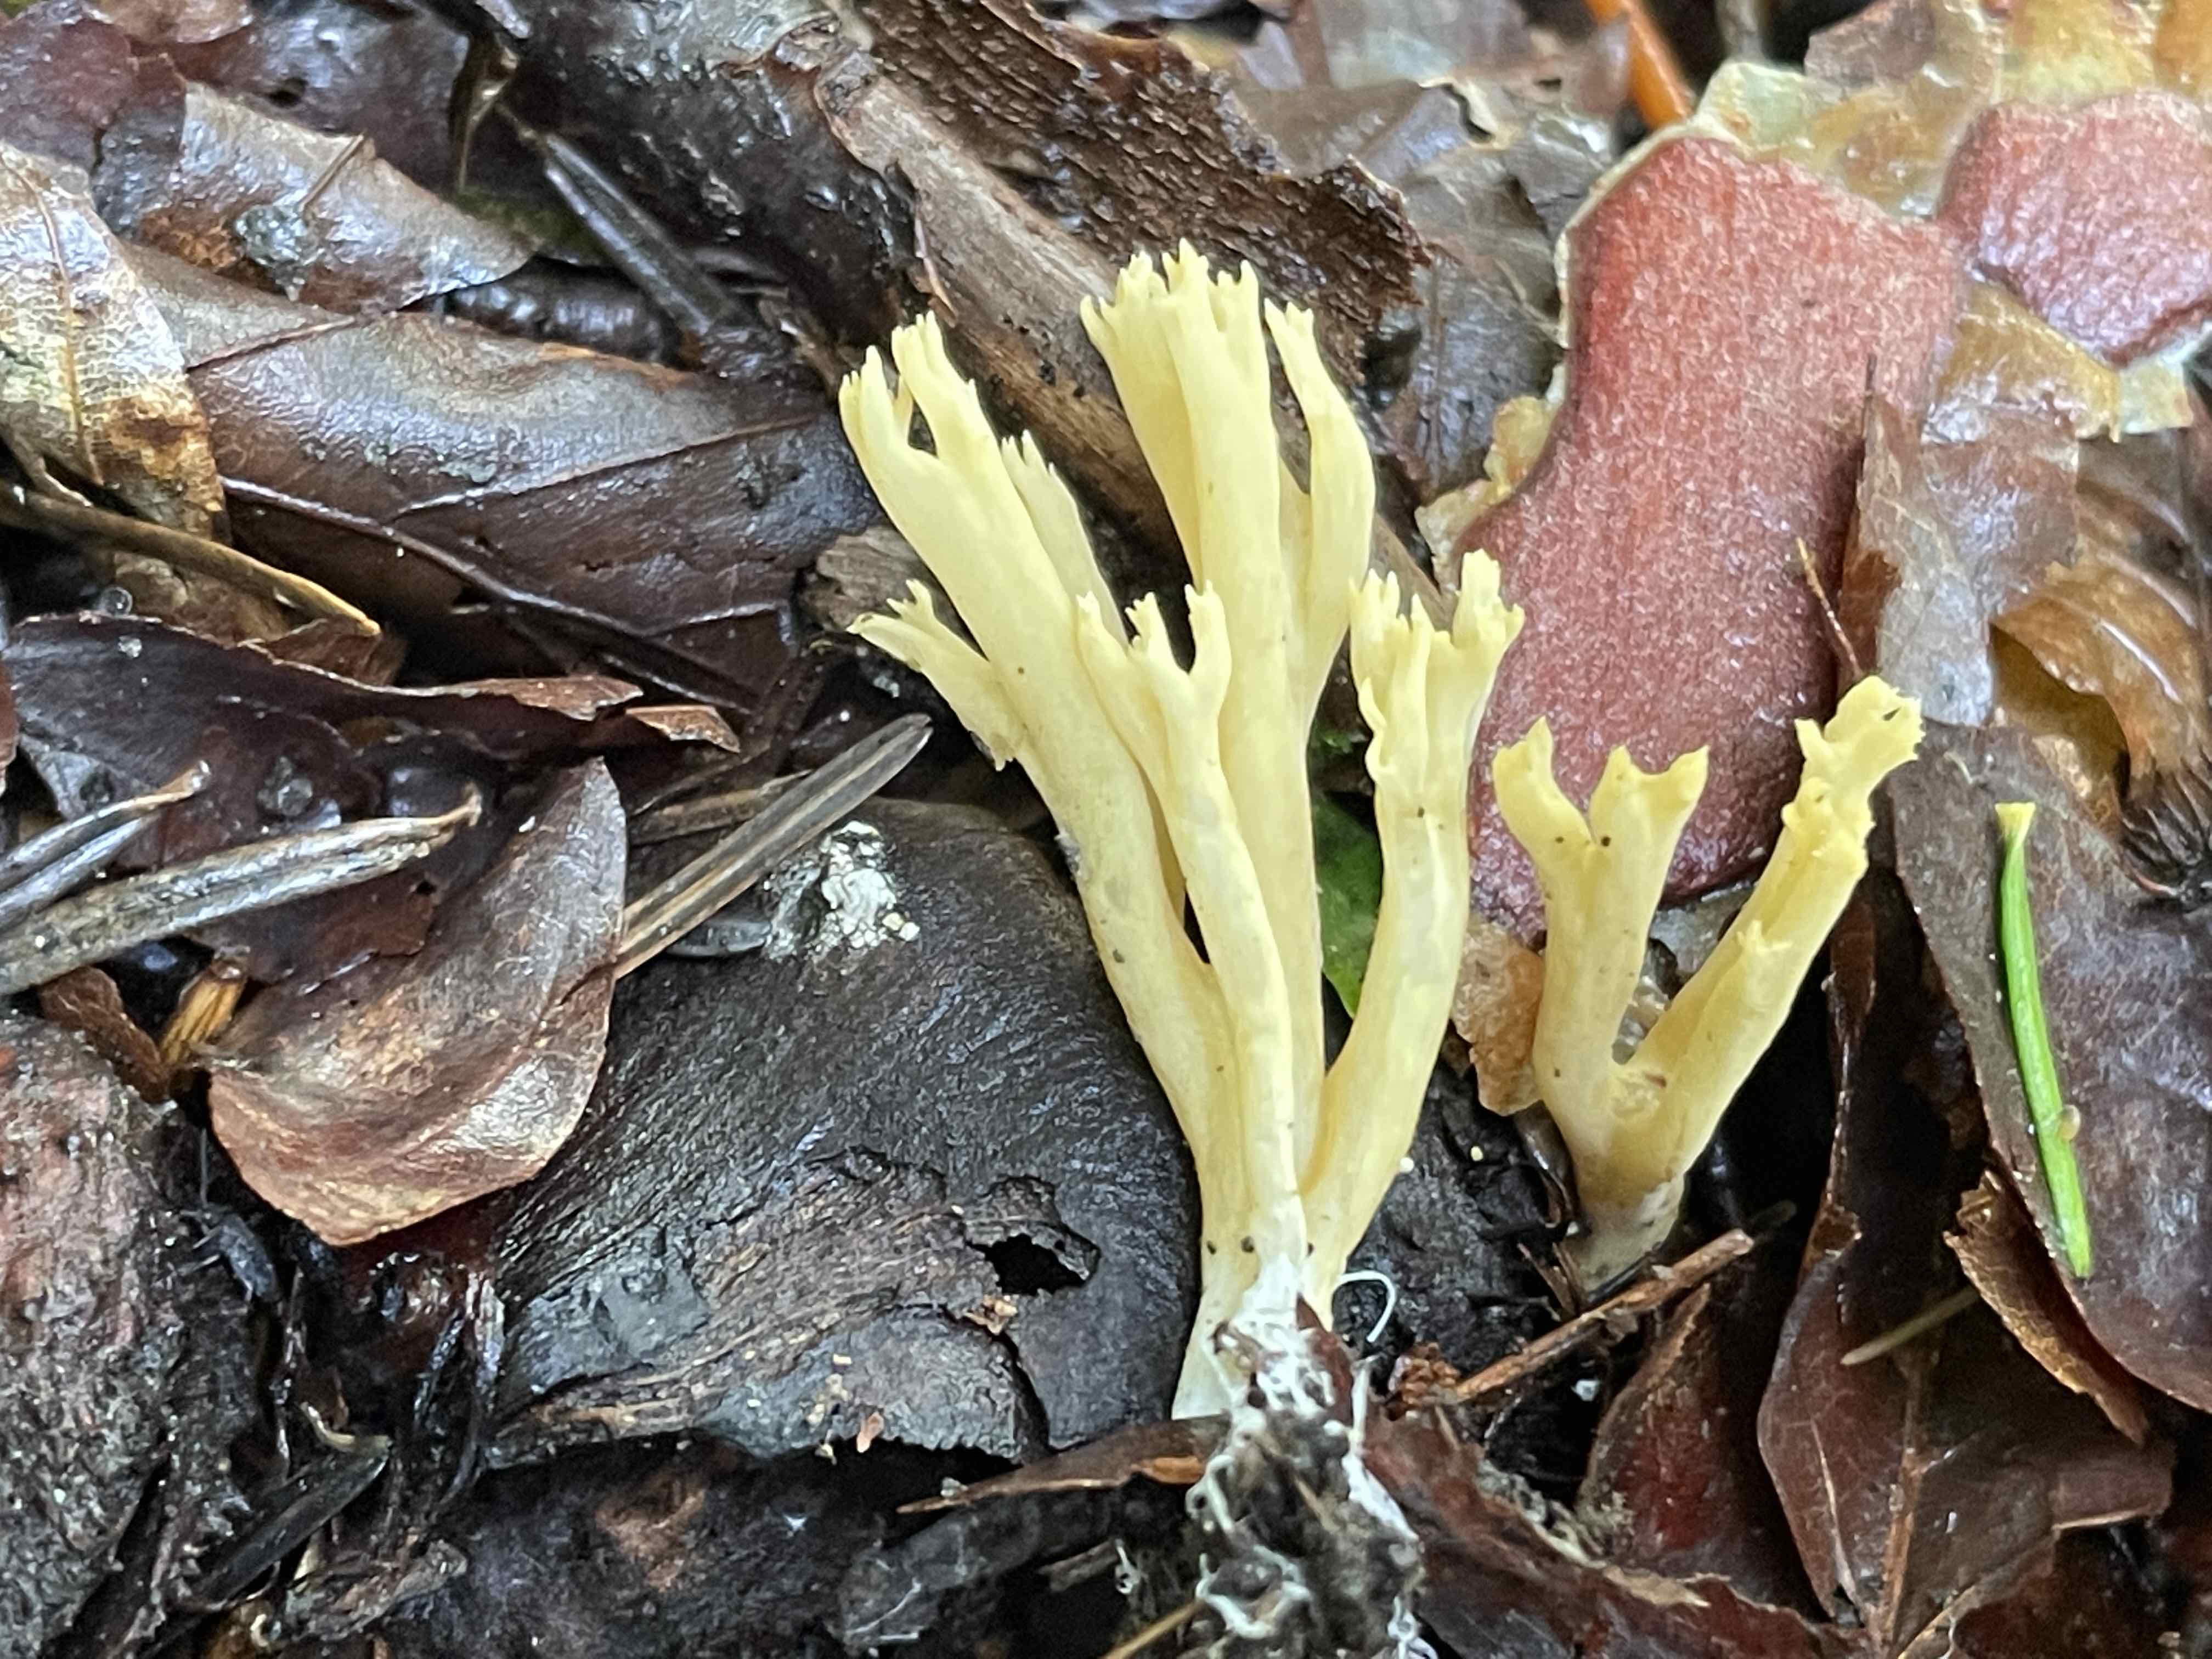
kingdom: Fungi
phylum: Basidiomycota
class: Agaricomycetes
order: Gomphales
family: Gomphaceae
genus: Ramaria
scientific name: Ramaria stricta
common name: rank koralsvamp
